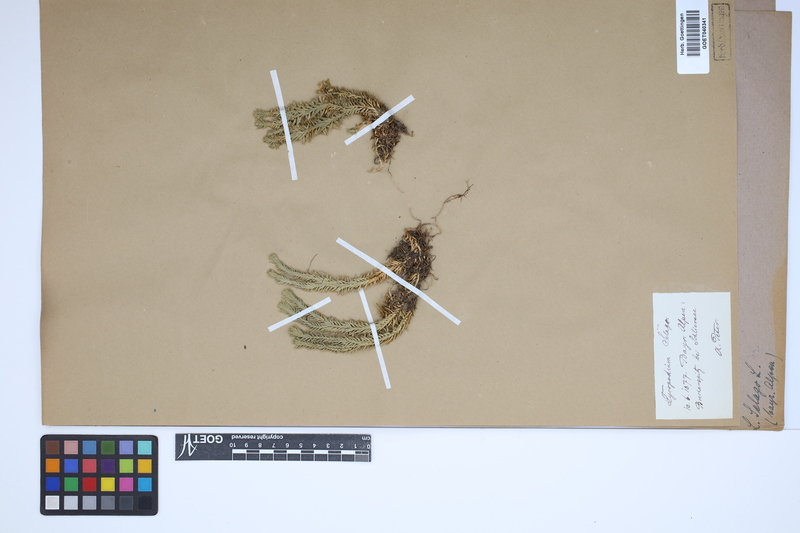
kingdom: Plantae
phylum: Tracheophyta
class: Lycopodiopsida
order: Lycopodiales
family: Lycopodiaceae
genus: Huperzia
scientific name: Huperzia selago
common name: Northern firmoss
